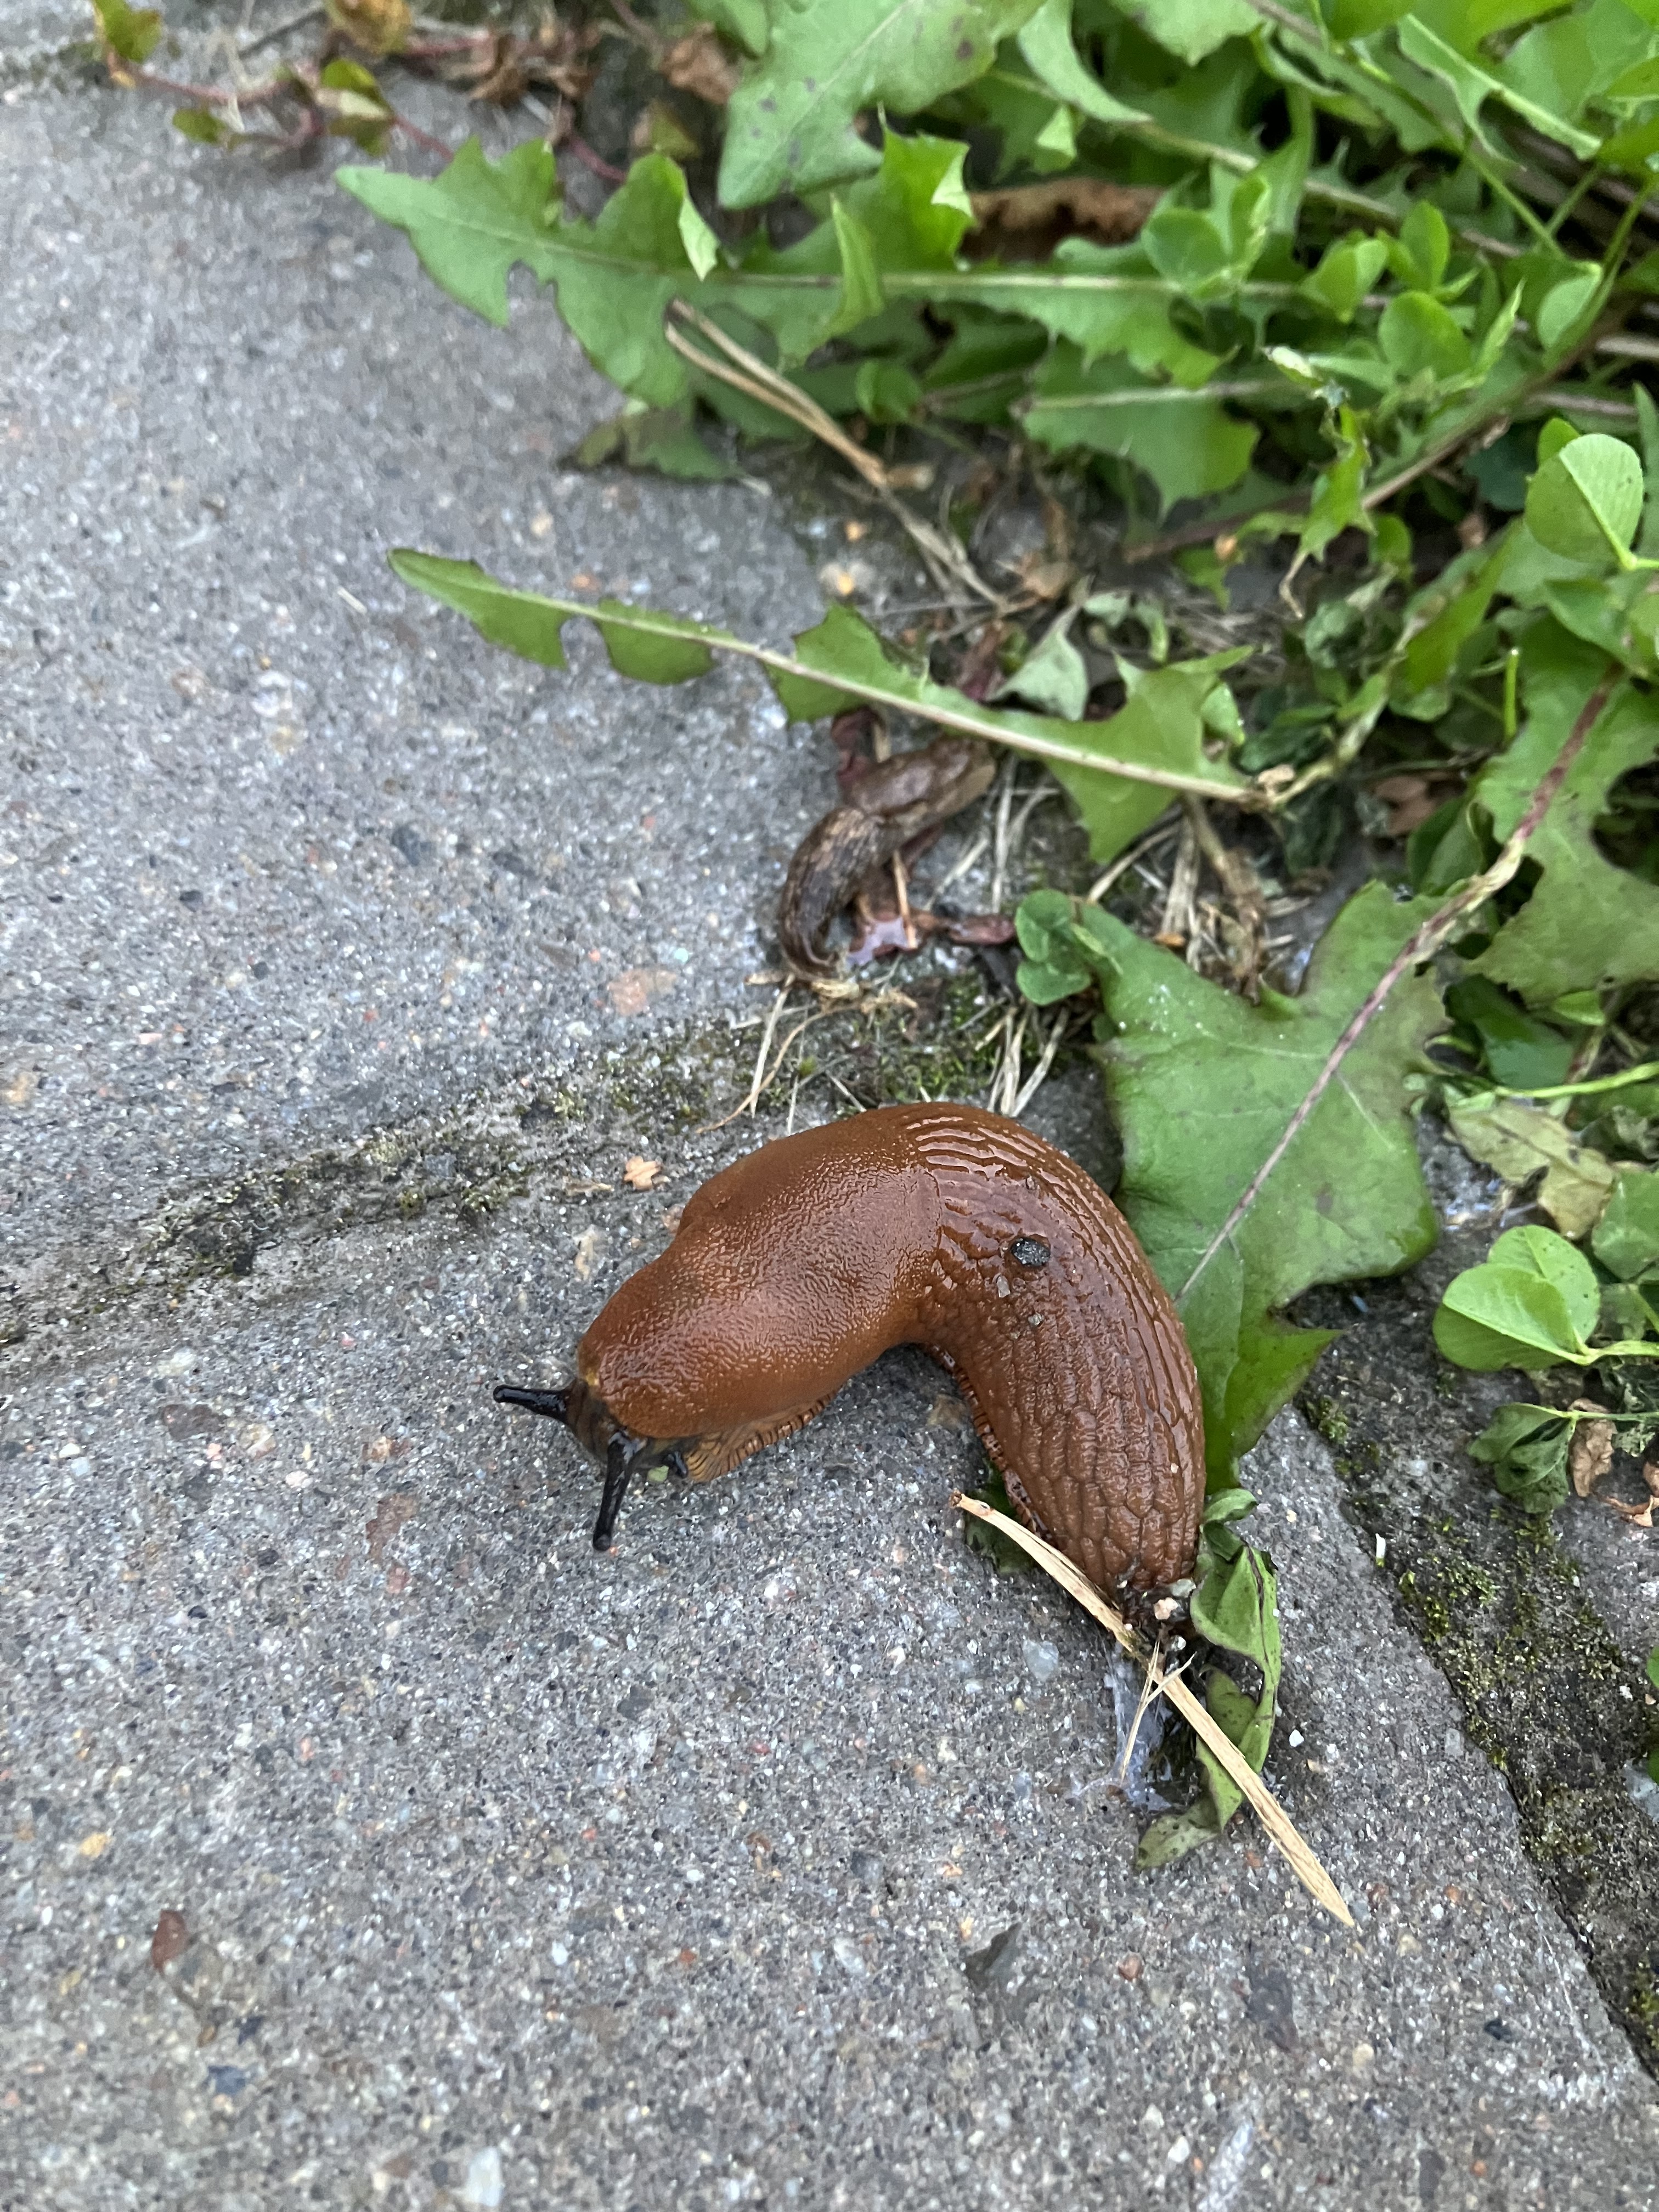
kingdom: Animalia
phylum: Mollusca
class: Gastropoda
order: Stylommatophora
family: Arionidae
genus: Arion
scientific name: Arion vulgaris
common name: Lusitanian slug
